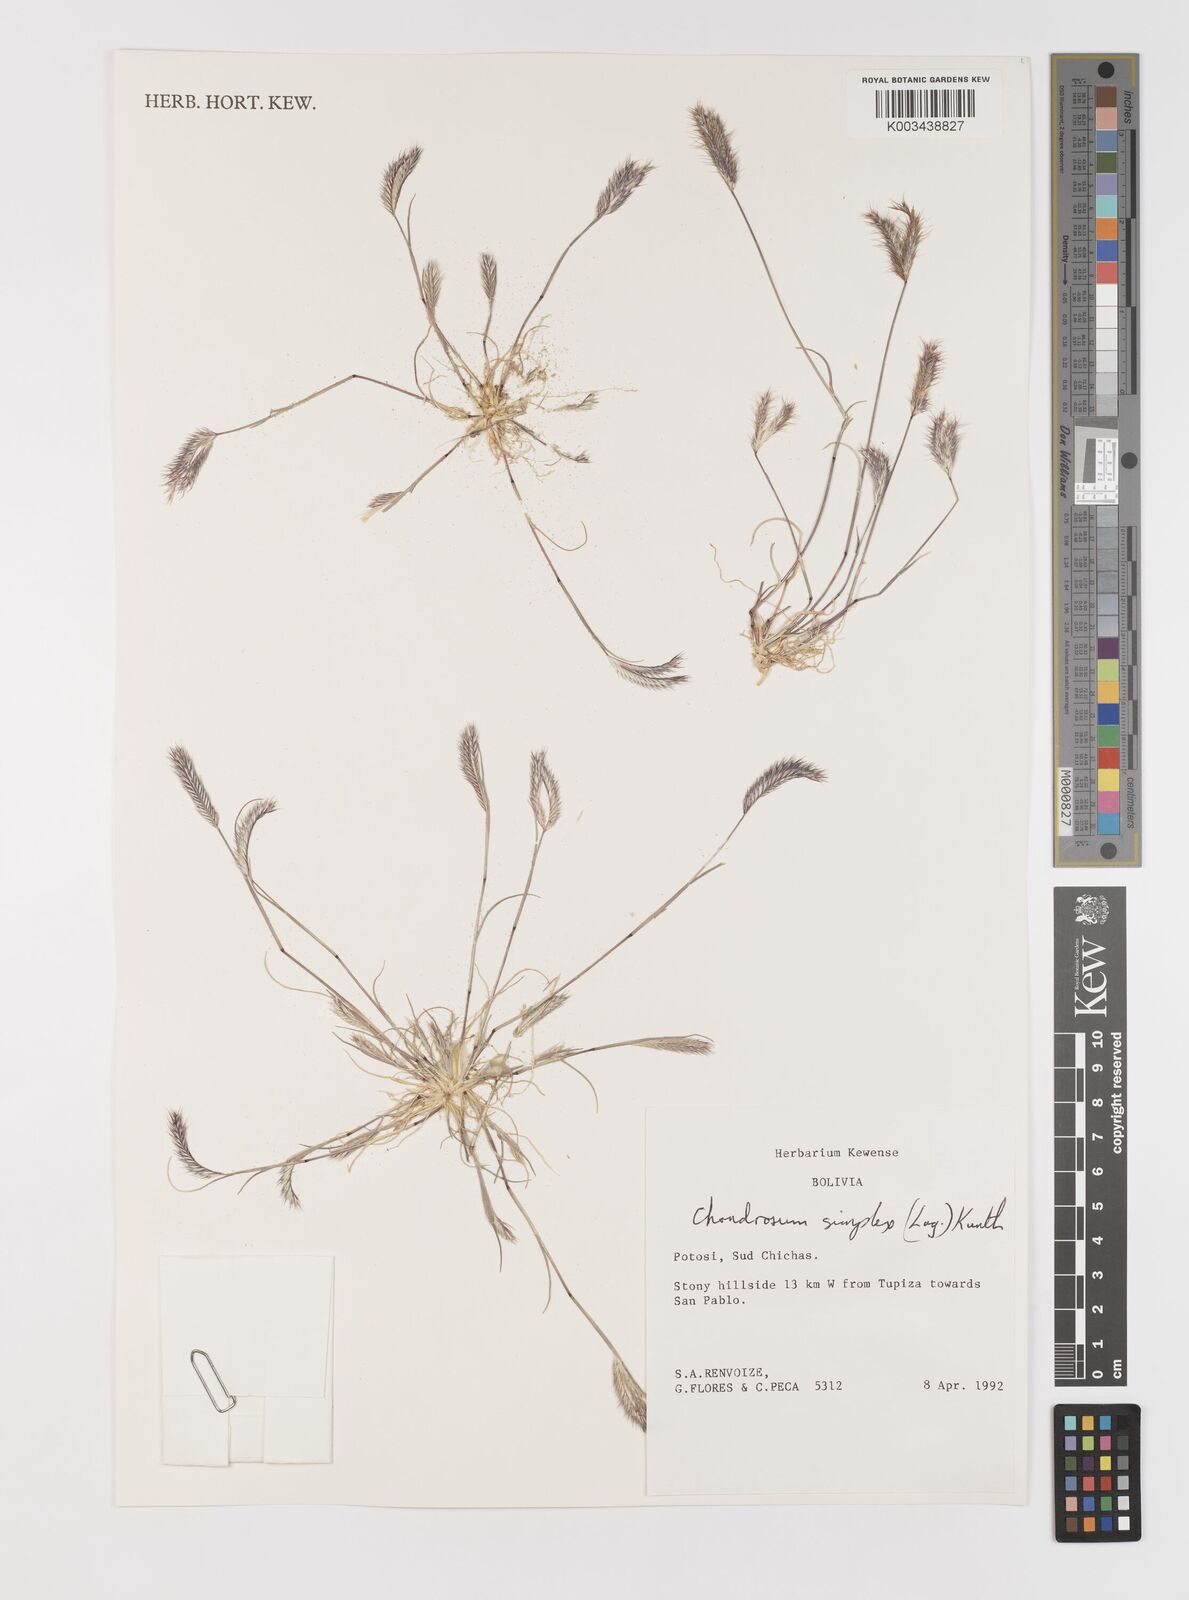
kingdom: Plantae
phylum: Tracheophyta
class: Liliopsida
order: Poales
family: Poaceae
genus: Bouteloua
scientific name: Bouteloua simplex
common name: Mat grama
